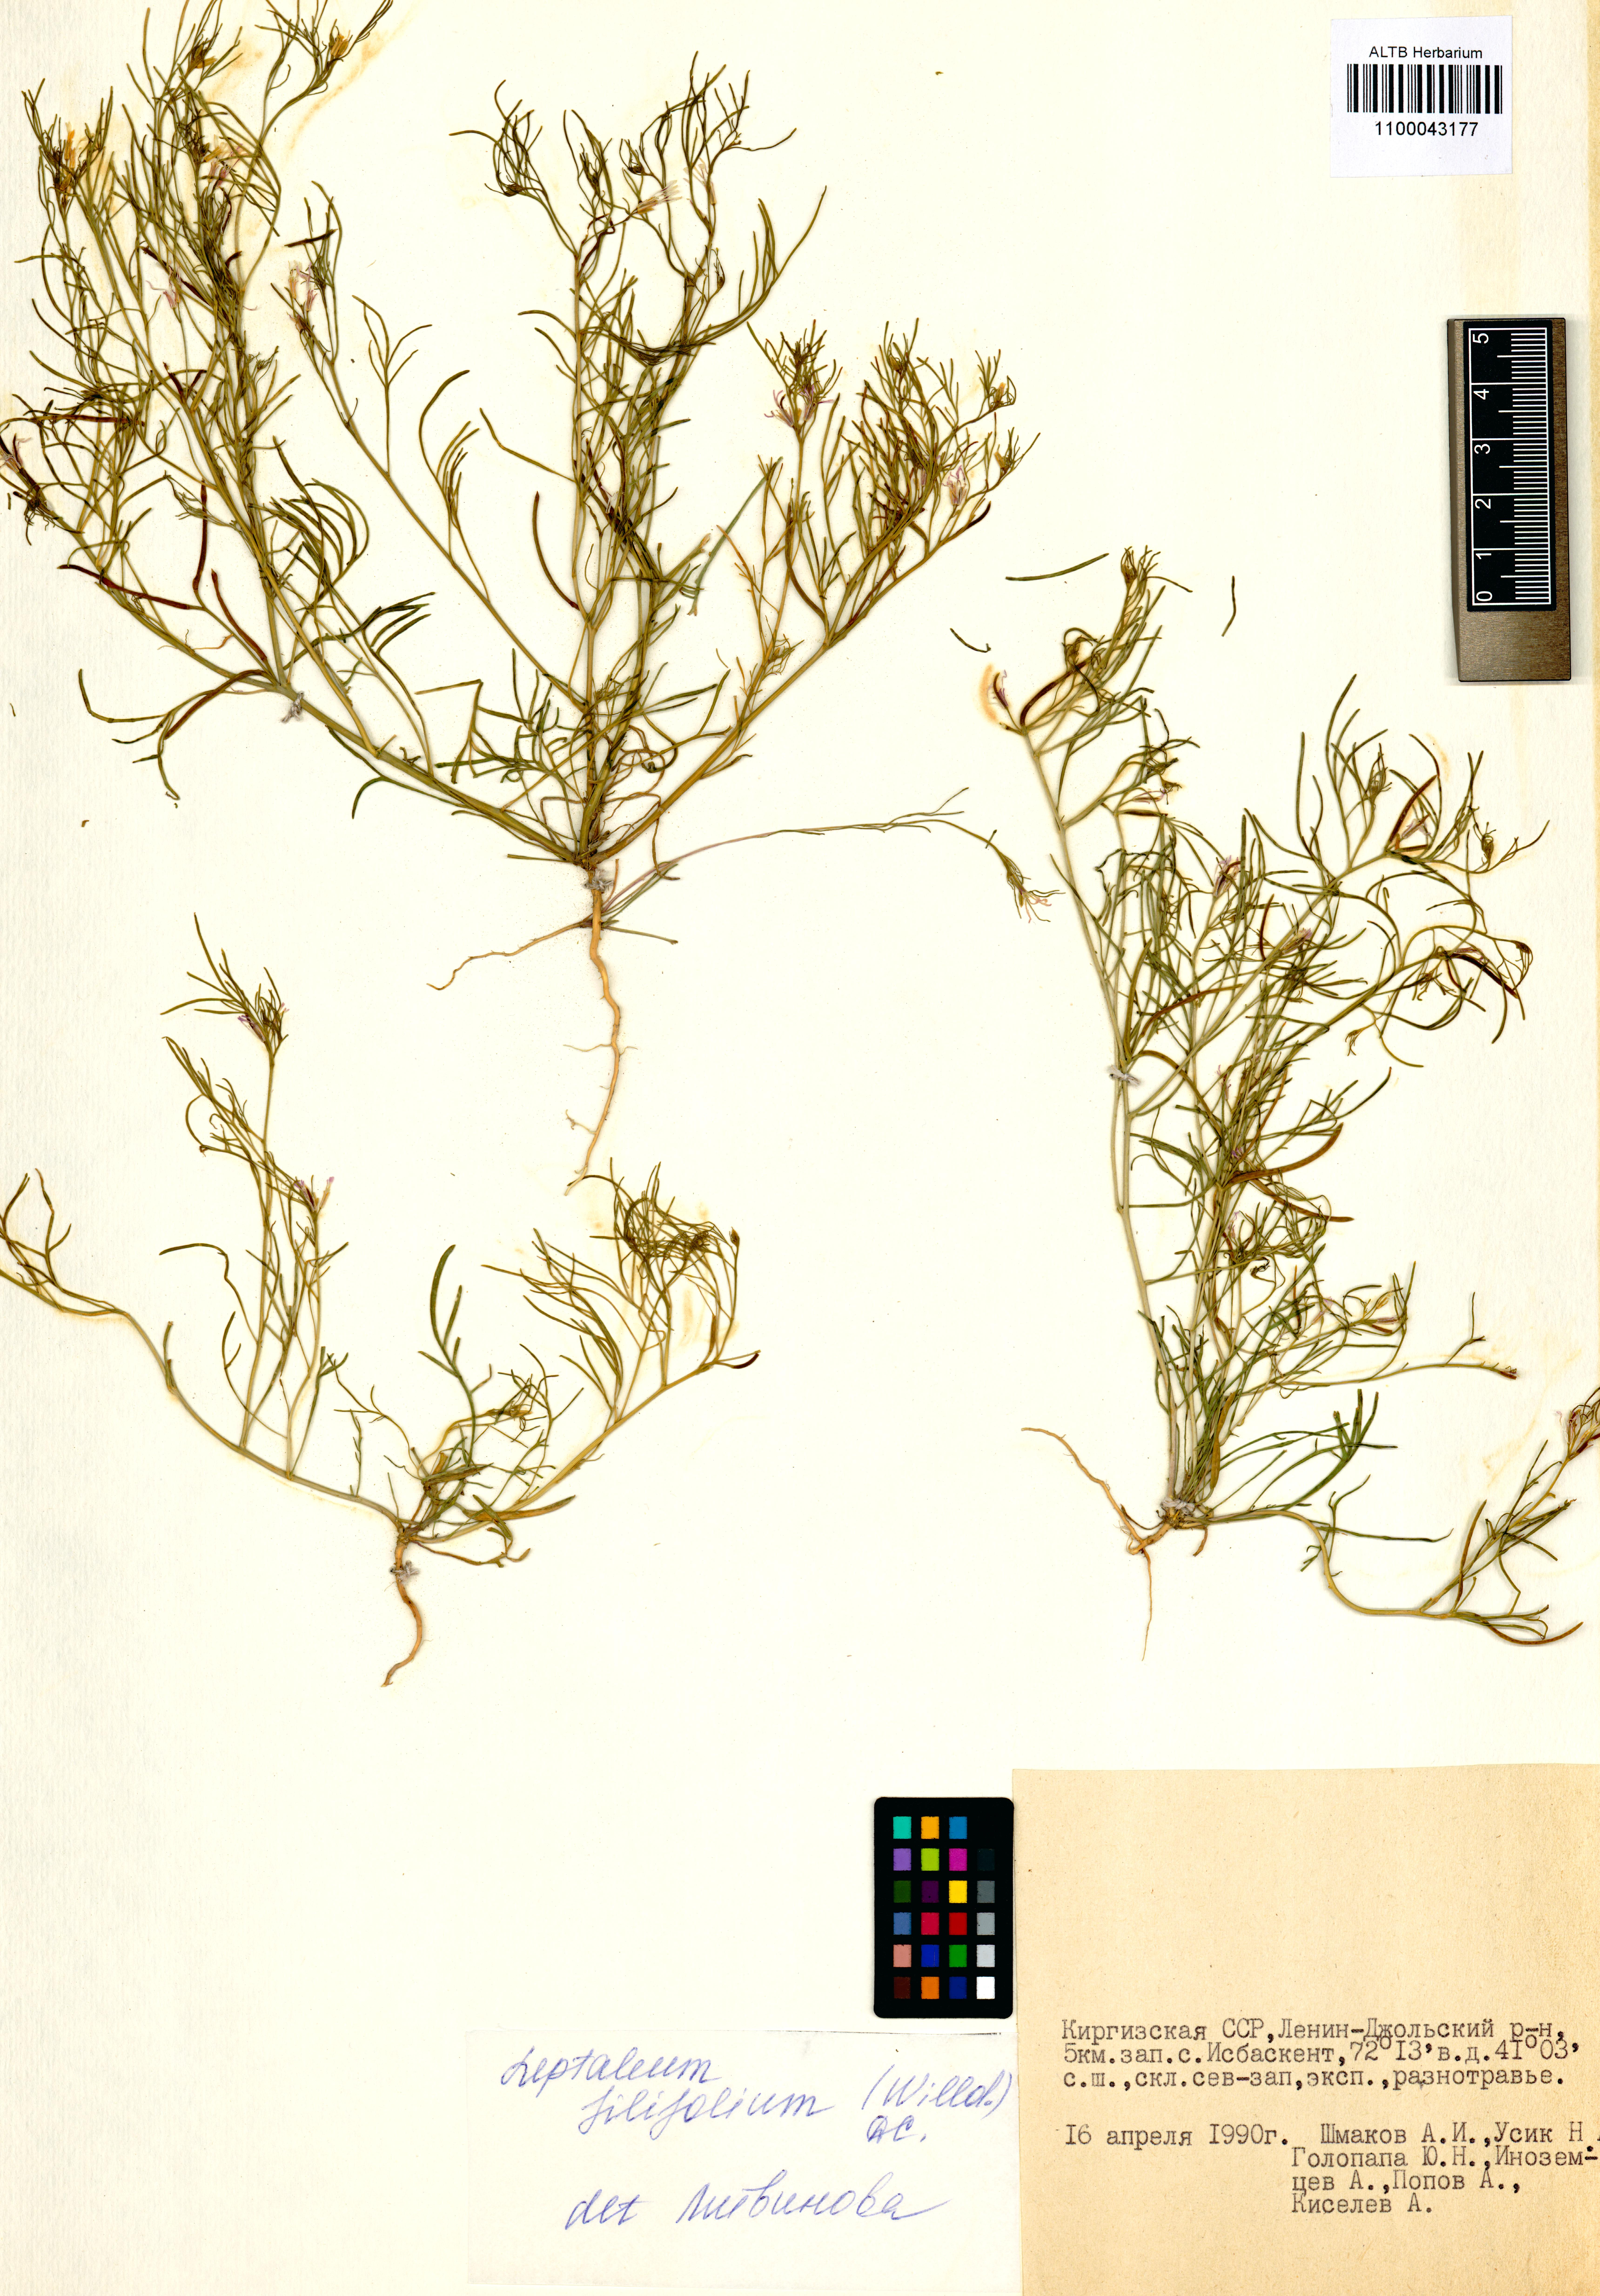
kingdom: Plantae
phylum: Tracheophyta
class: Magnoliopsida
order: Brassicales
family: Brassicaceae
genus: Leptaleum
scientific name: Leptaleum filifolium
